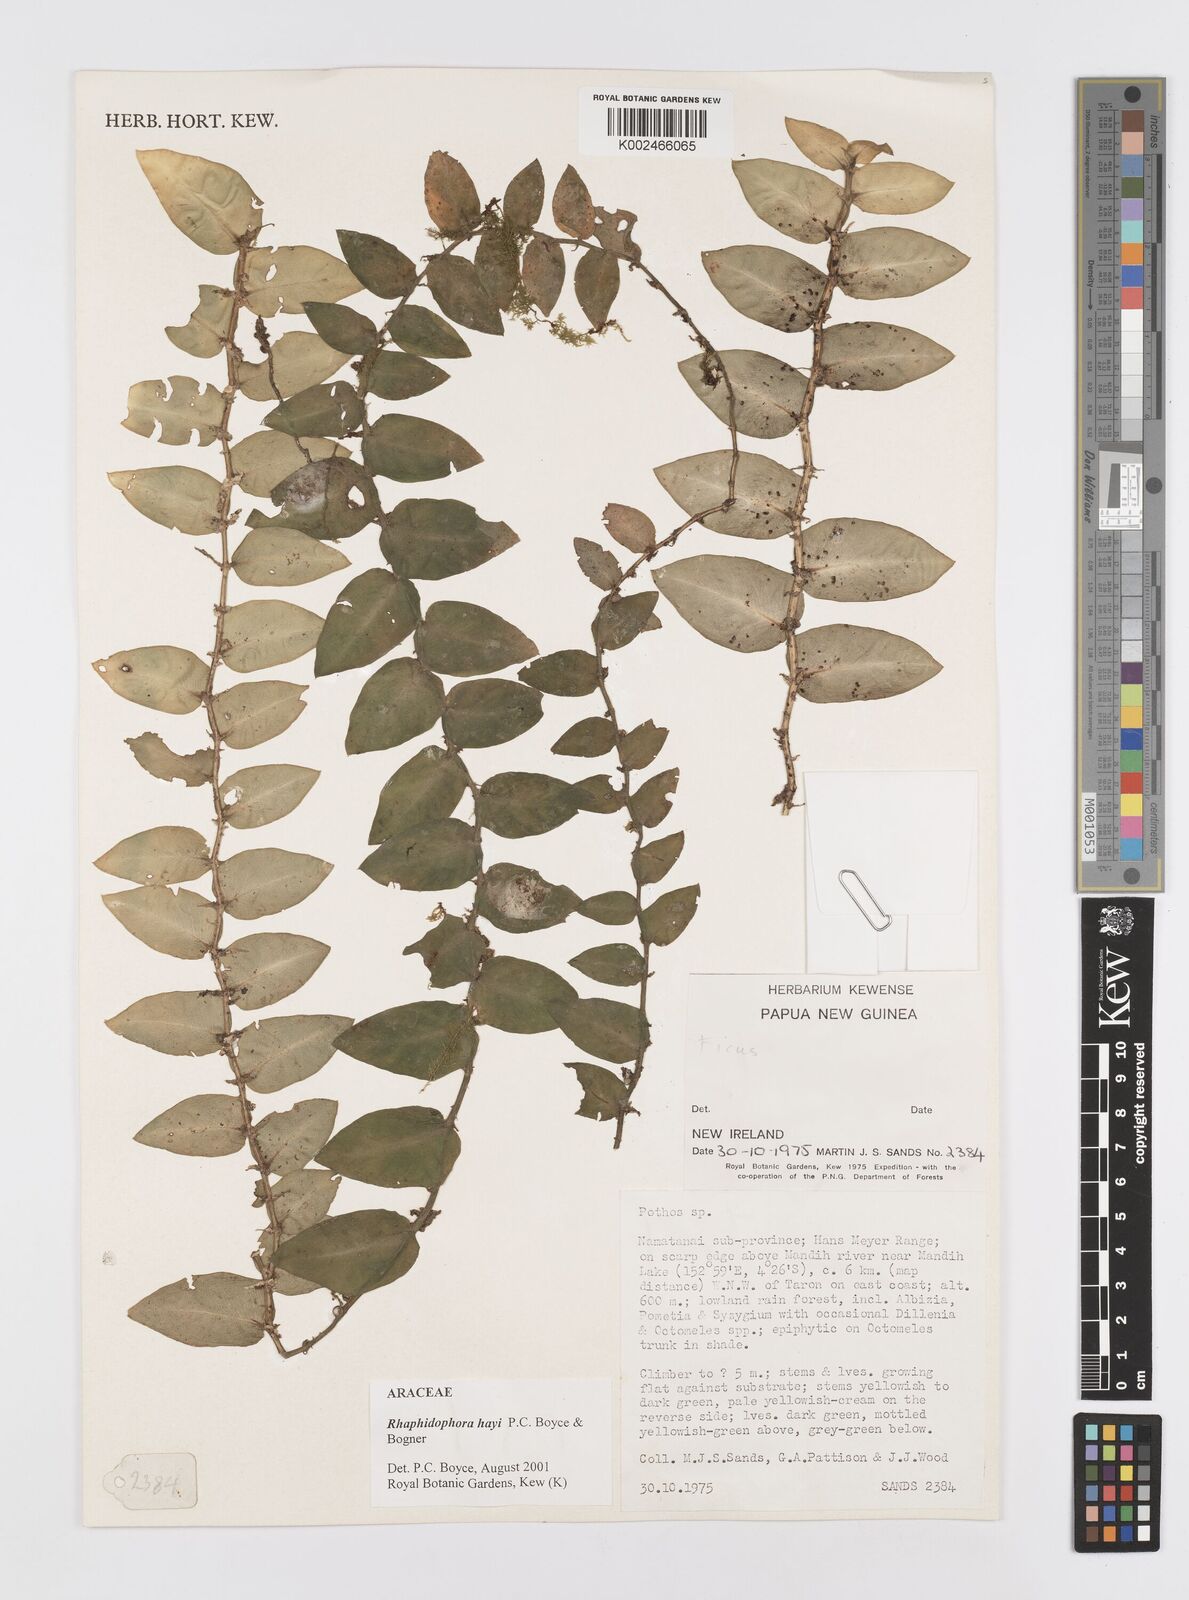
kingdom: Plantae
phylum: Tracheophyta
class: Liliopsida
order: Alismatales
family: Araceae
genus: Rhaphidophora
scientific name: Rhaphidophora hayi
